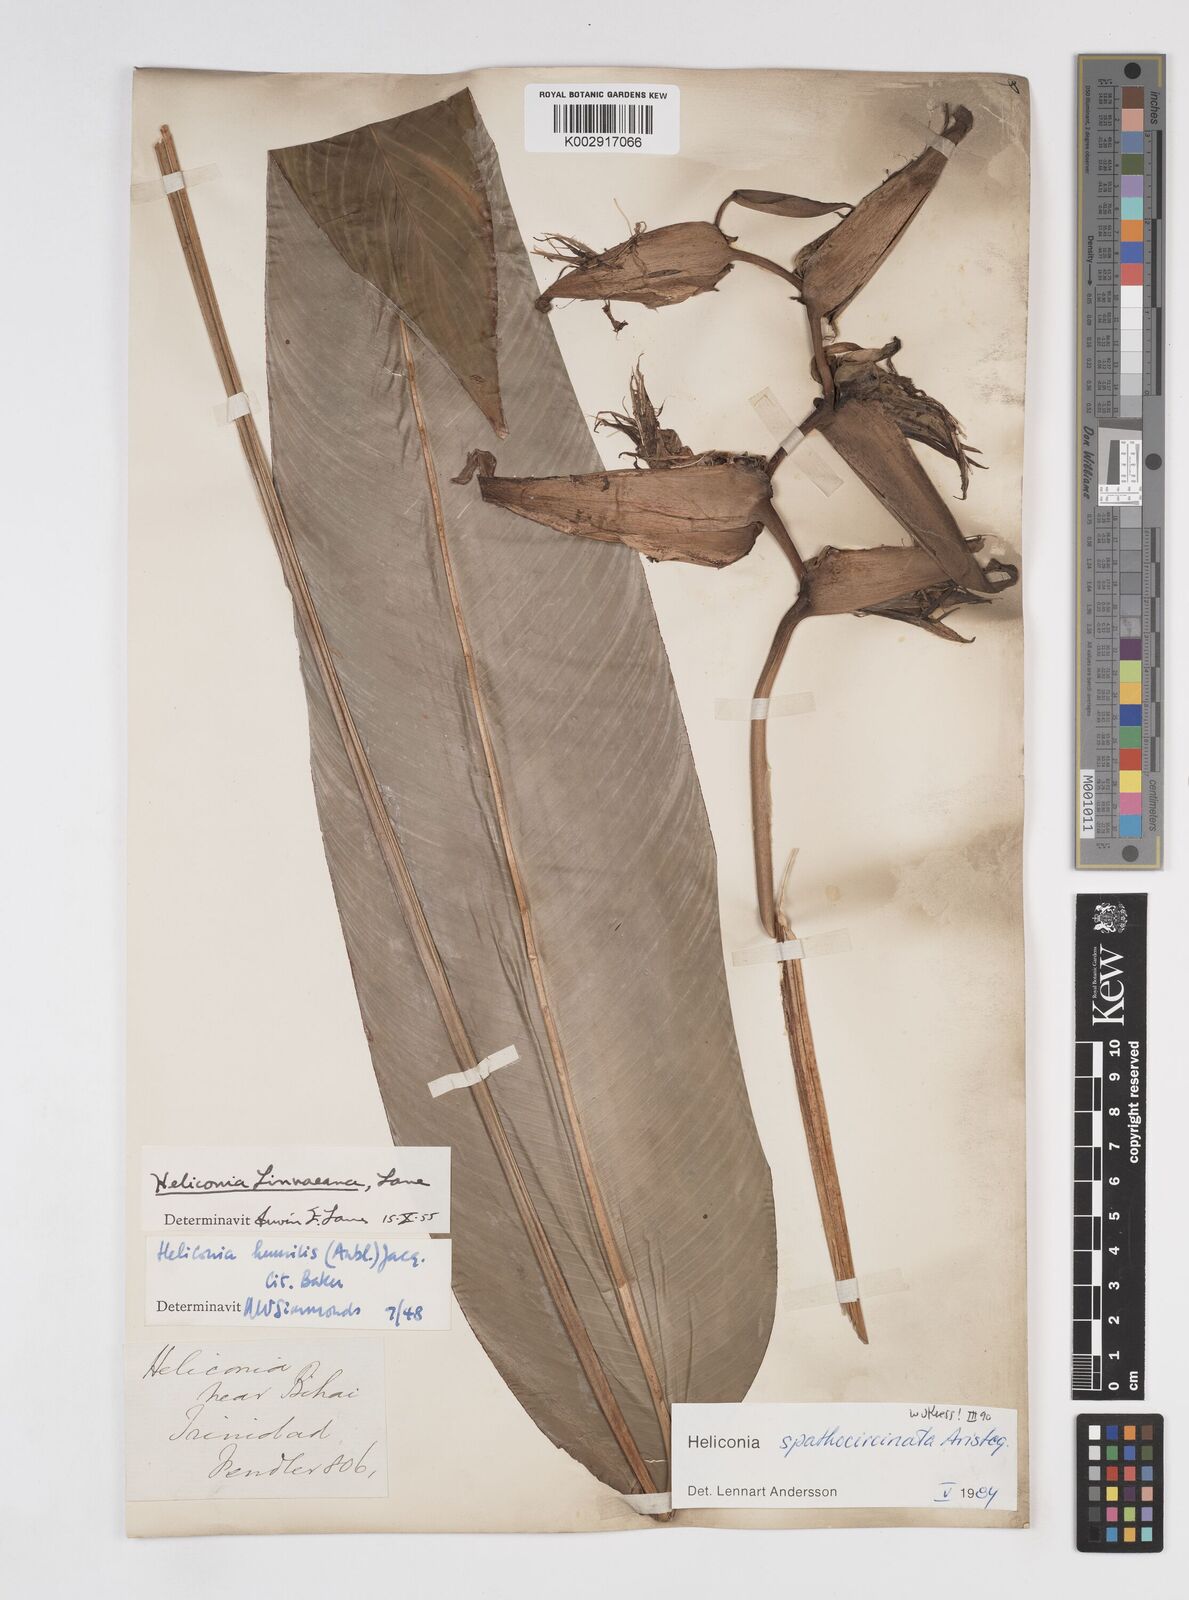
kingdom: Plantae
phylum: Tracheophyta
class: Liliopsida
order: Zingiberales
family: Heliconiaceae
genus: Heliconia
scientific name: Heliconia spathocircinata
